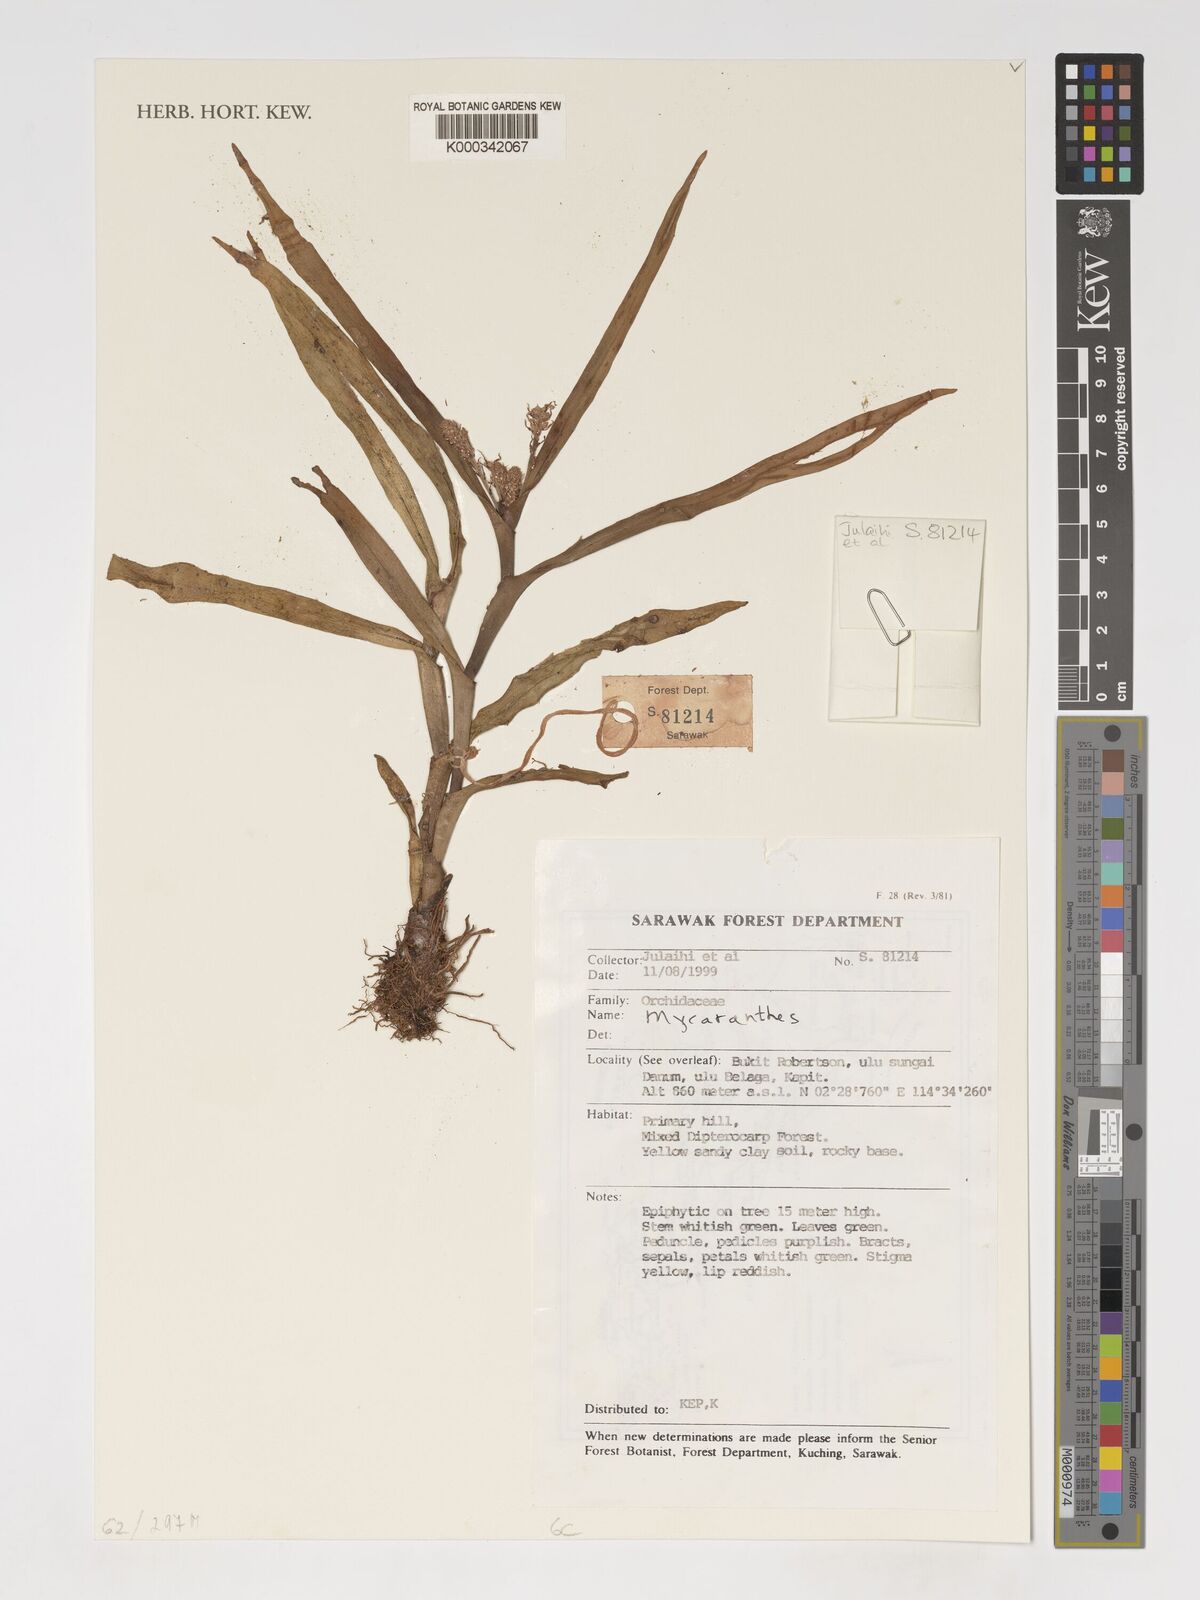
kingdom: Plantae
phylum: Tracheophyta
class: Liliopsida
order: Asparagales
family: Orchidaceae
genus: Mycaranthes
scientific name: Mycaranthes
